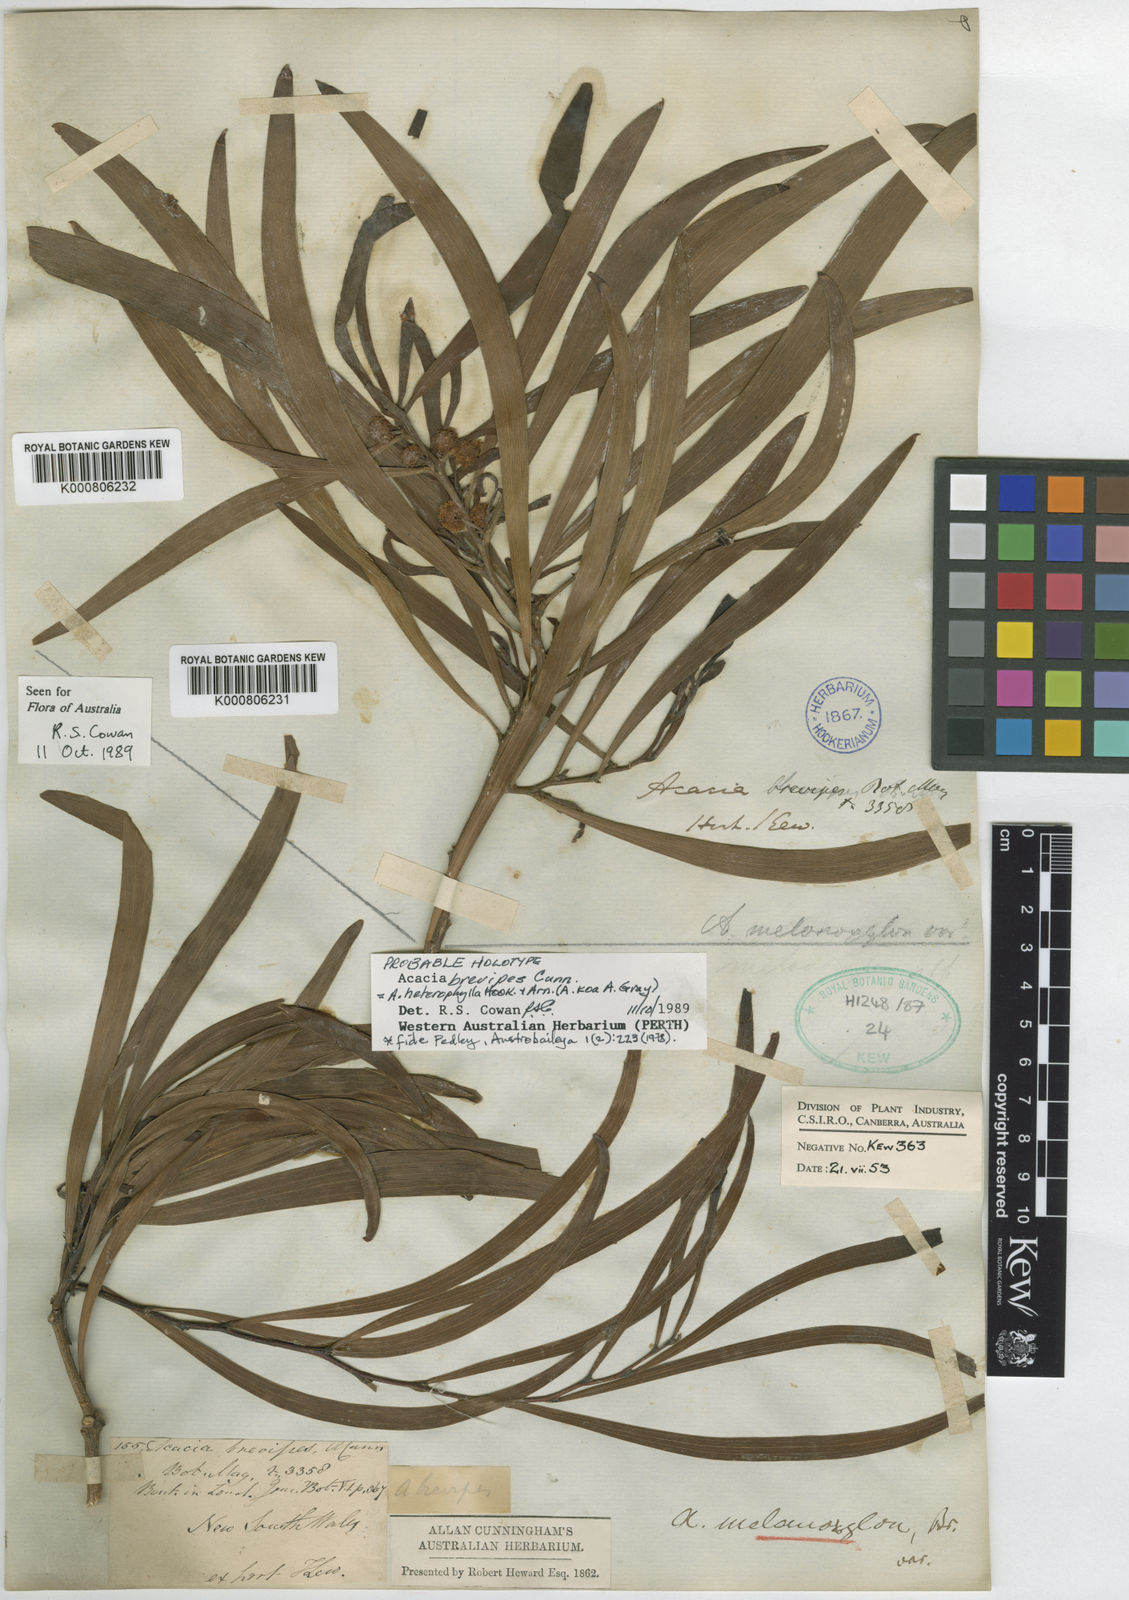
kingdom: Plantae
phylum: Tracheophyta
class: Magnoliopsida
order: Fabales
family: Fabaceae
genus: Acacia
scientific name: Acacia melanoxylon
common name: Blackwood
